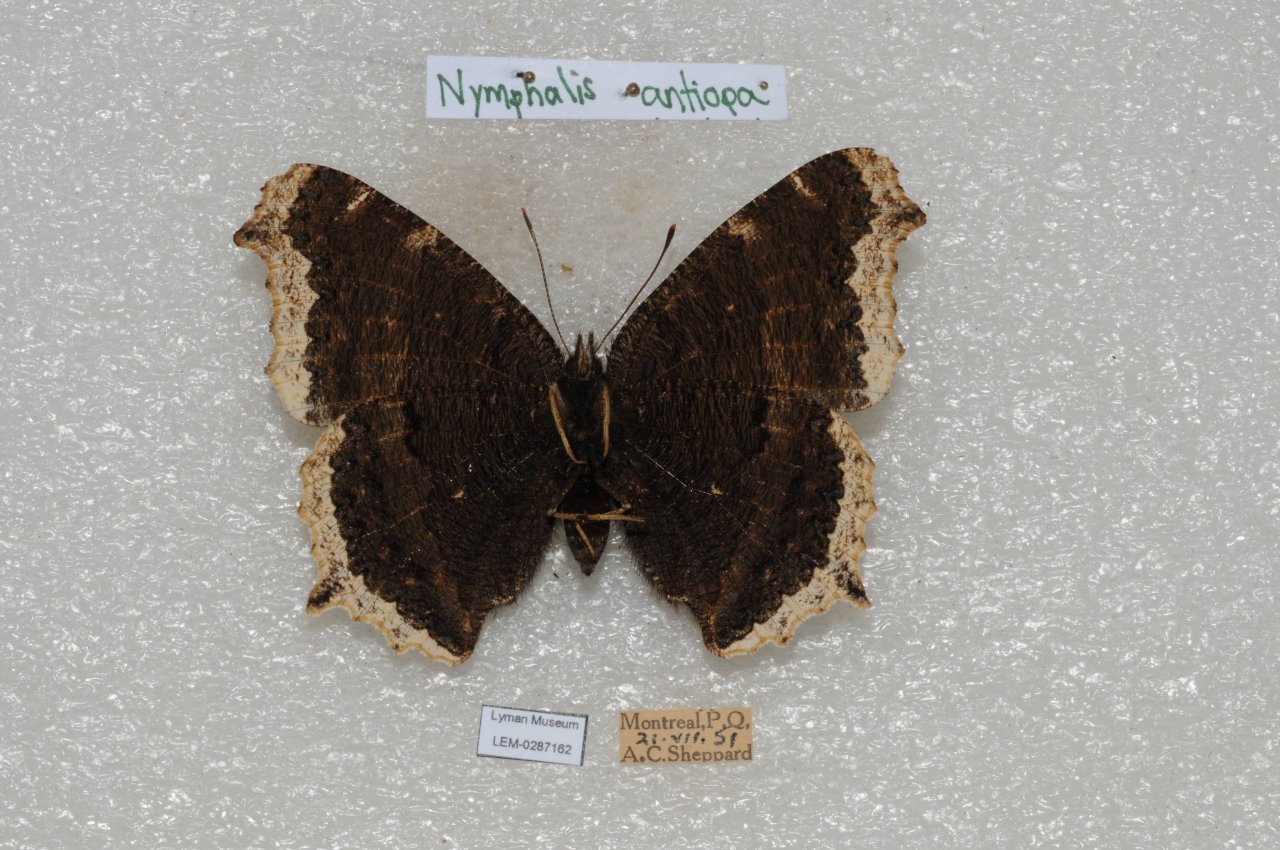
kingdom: Animalia
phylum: Arthropoda
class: Insecta
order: Lepidoptera
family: Nymphalidae
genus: Nymphalis
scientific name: Nymphalis antiopa
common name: Mourning Cloak
